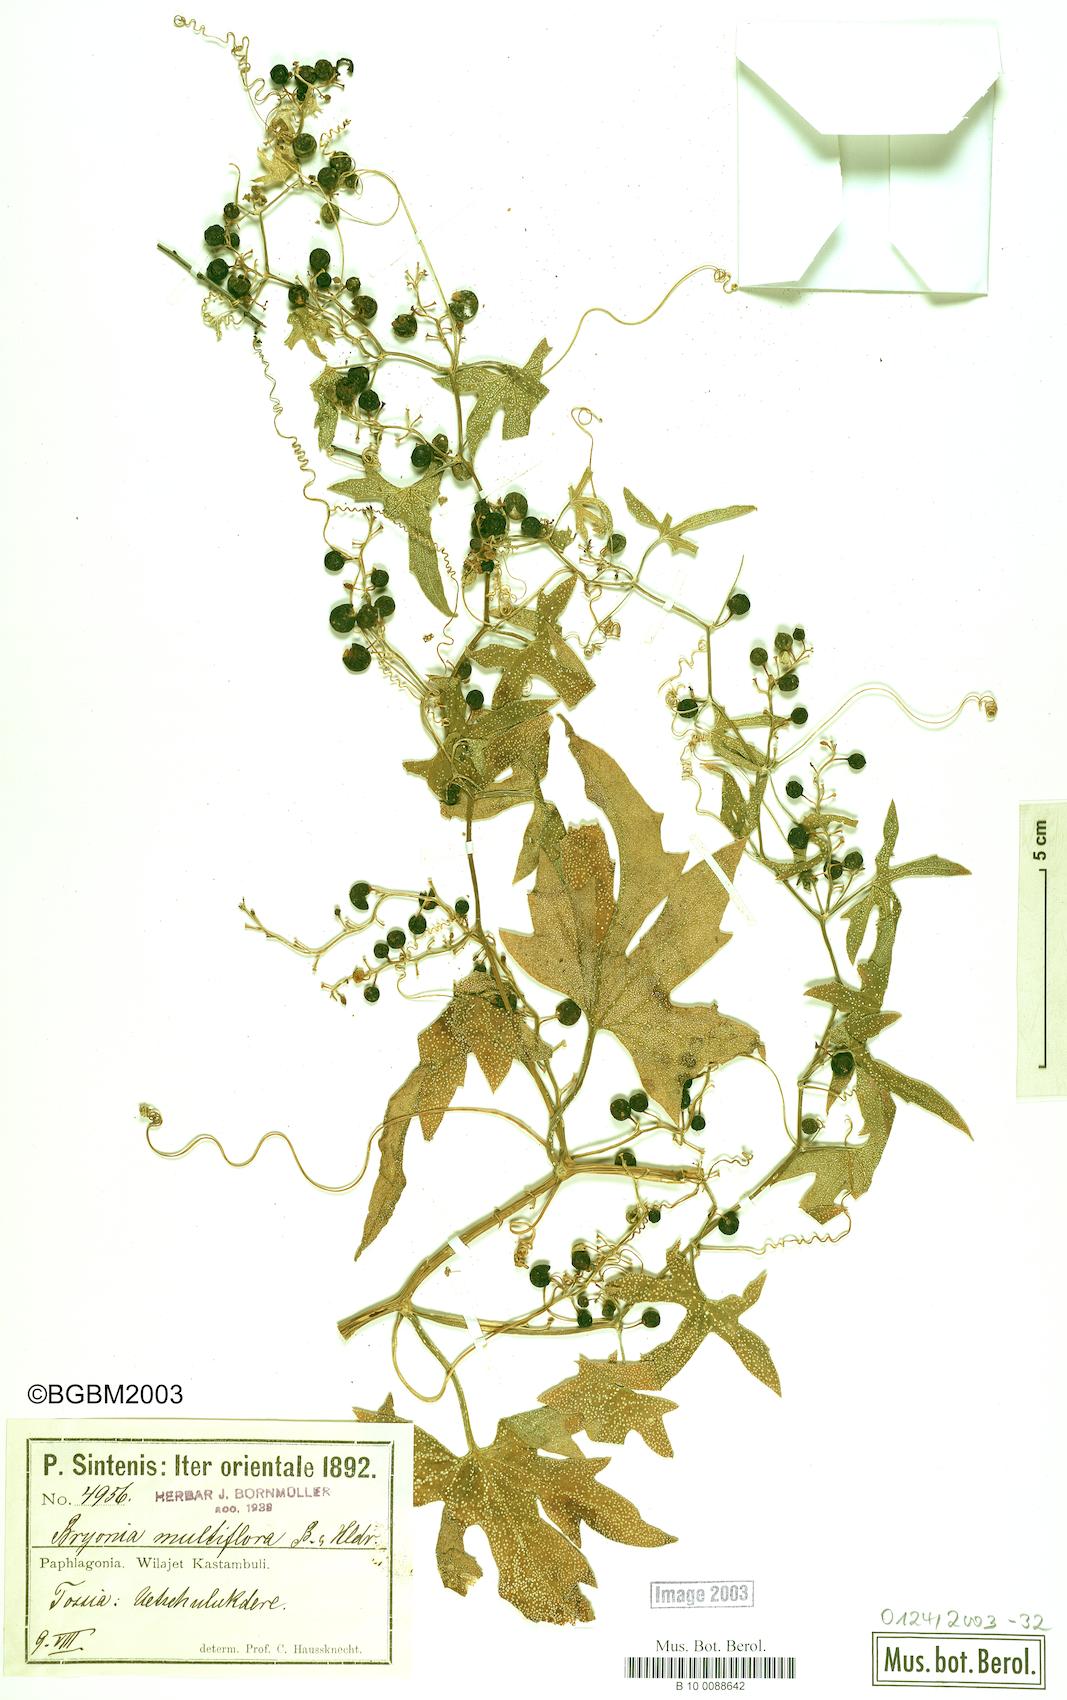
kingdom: Plantae
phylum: Tracheophyta
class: Magnoliopsida
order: Cucurbitales
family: Cucurbitaceae
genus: Bryonia
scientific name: Bryonia multiflora
